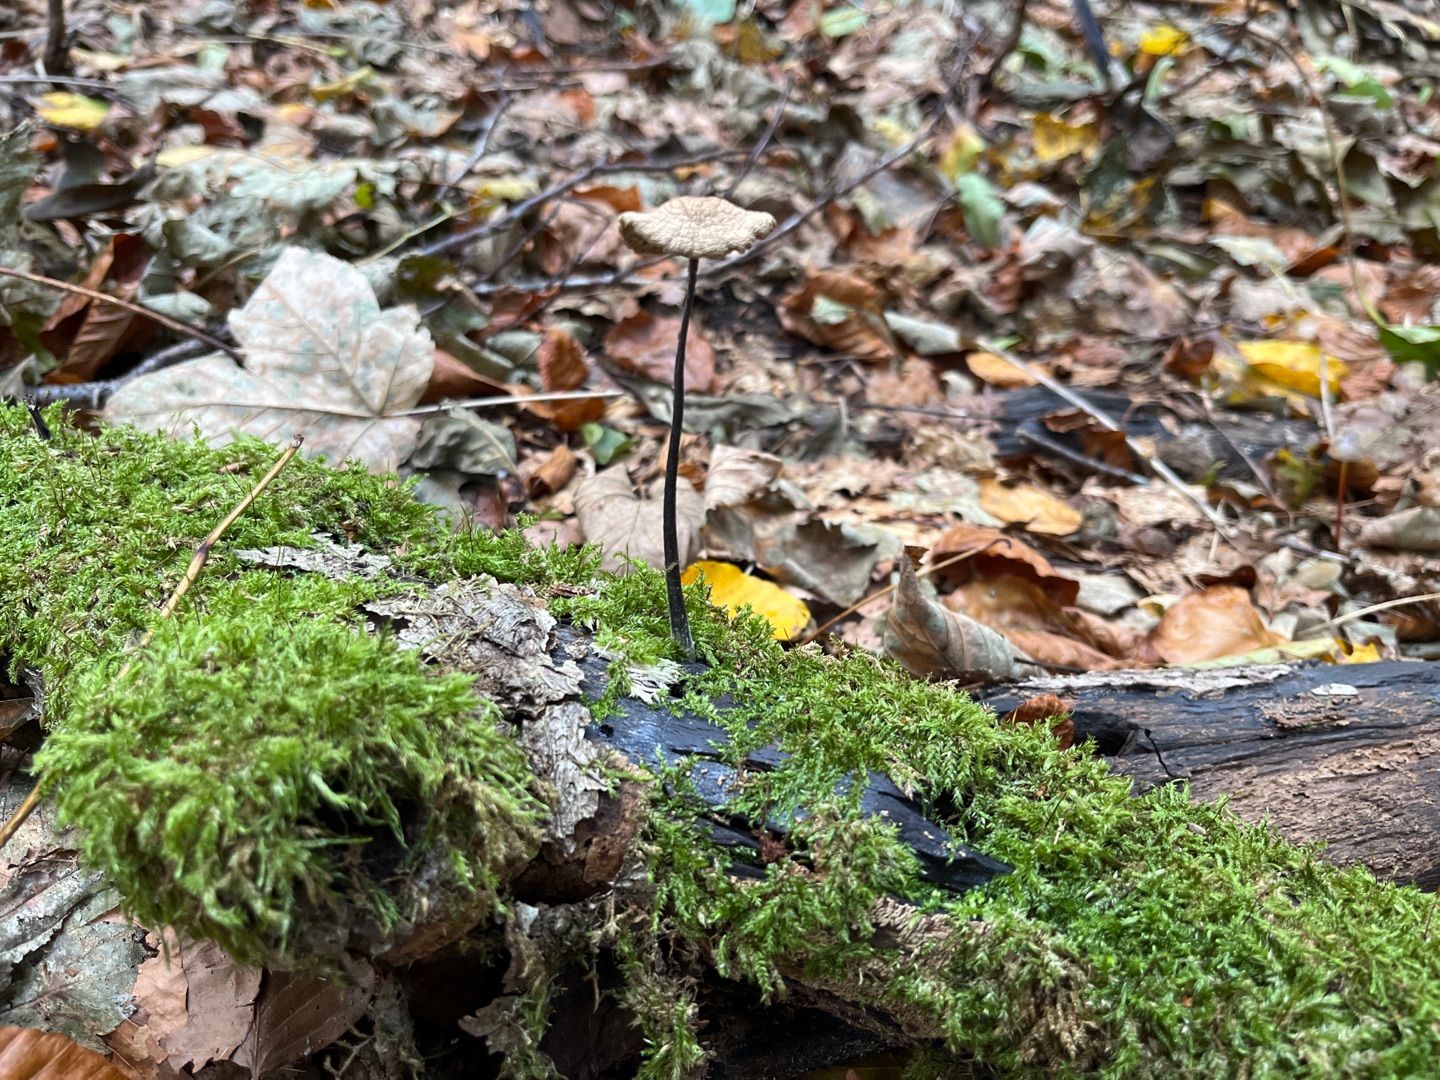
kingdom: Fungi
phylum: Basidiomycota
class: Agaricomycetes
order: Agaricales
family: Omphalotaceae
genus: Mycetinis
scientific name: Mycetinis alliaceus
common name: Stor løghat
